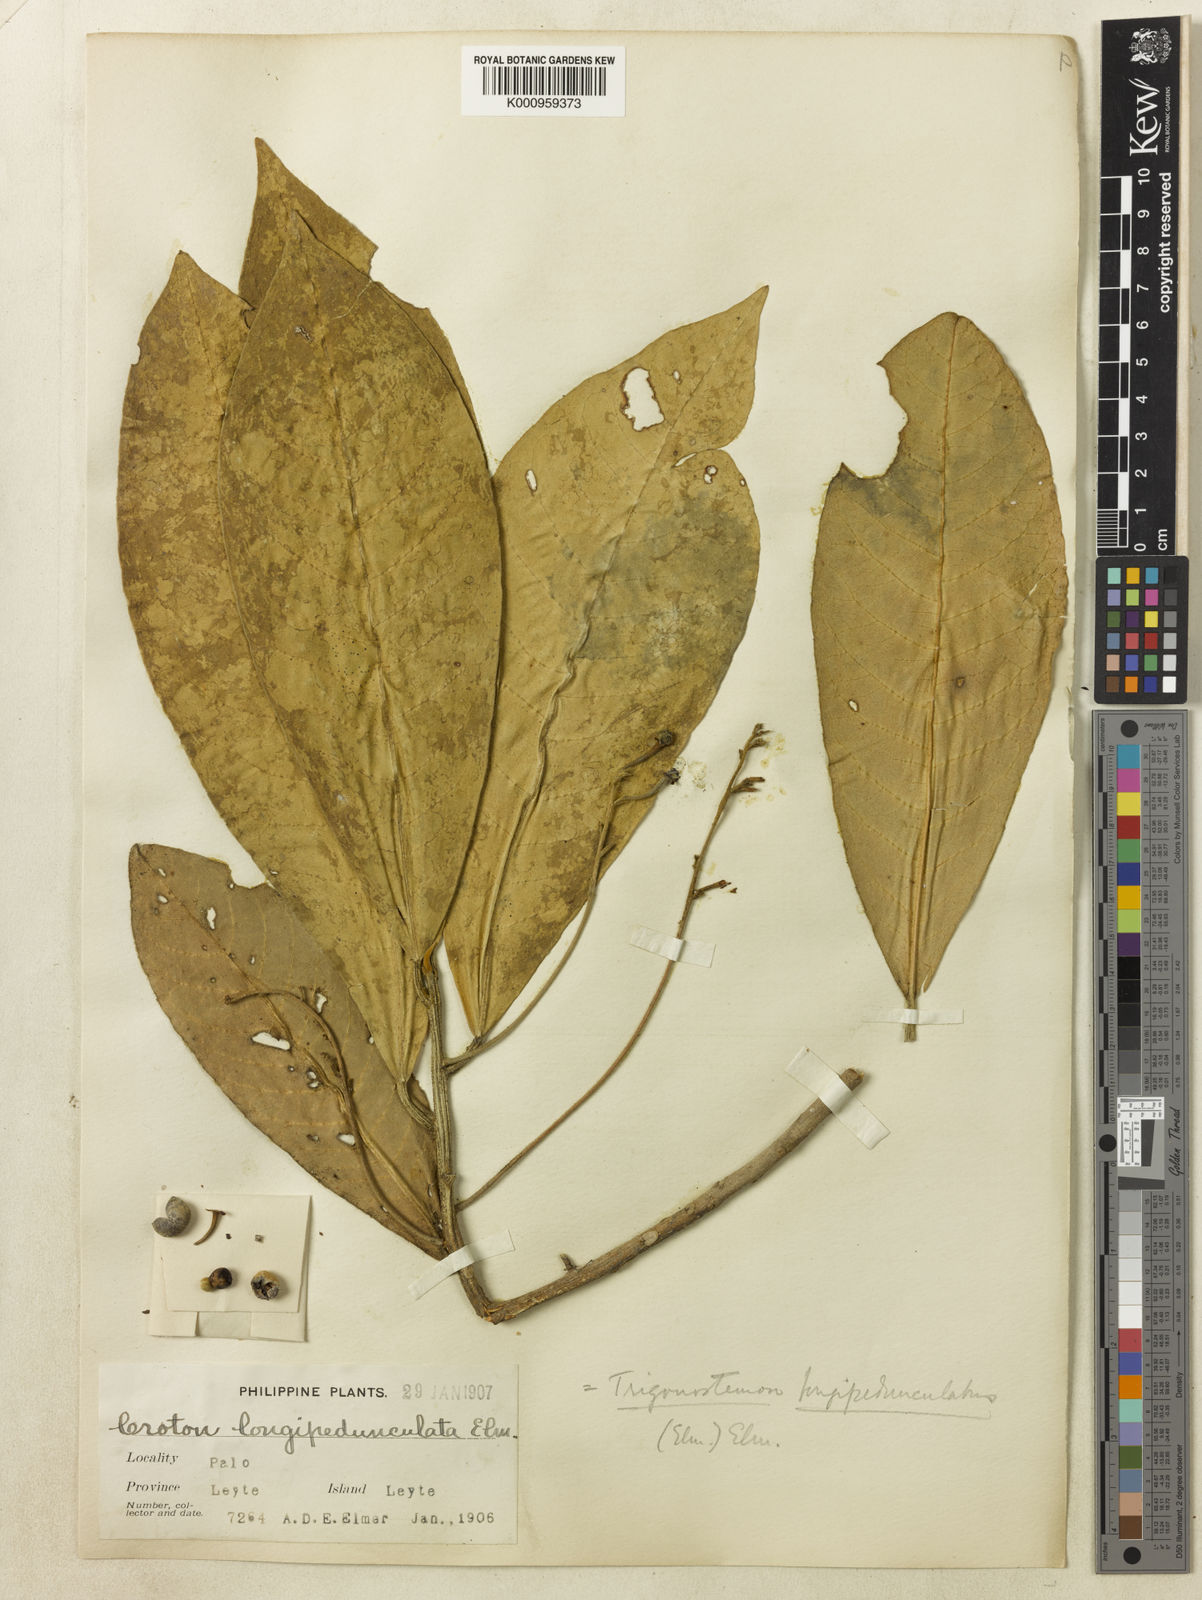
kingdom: Plantae
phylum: Tracheophyta
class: Magnoliopsida
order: Malpighiales
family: Euphorbiaceae
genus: Trigonostemon
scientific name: Trigonostemon longifolius
